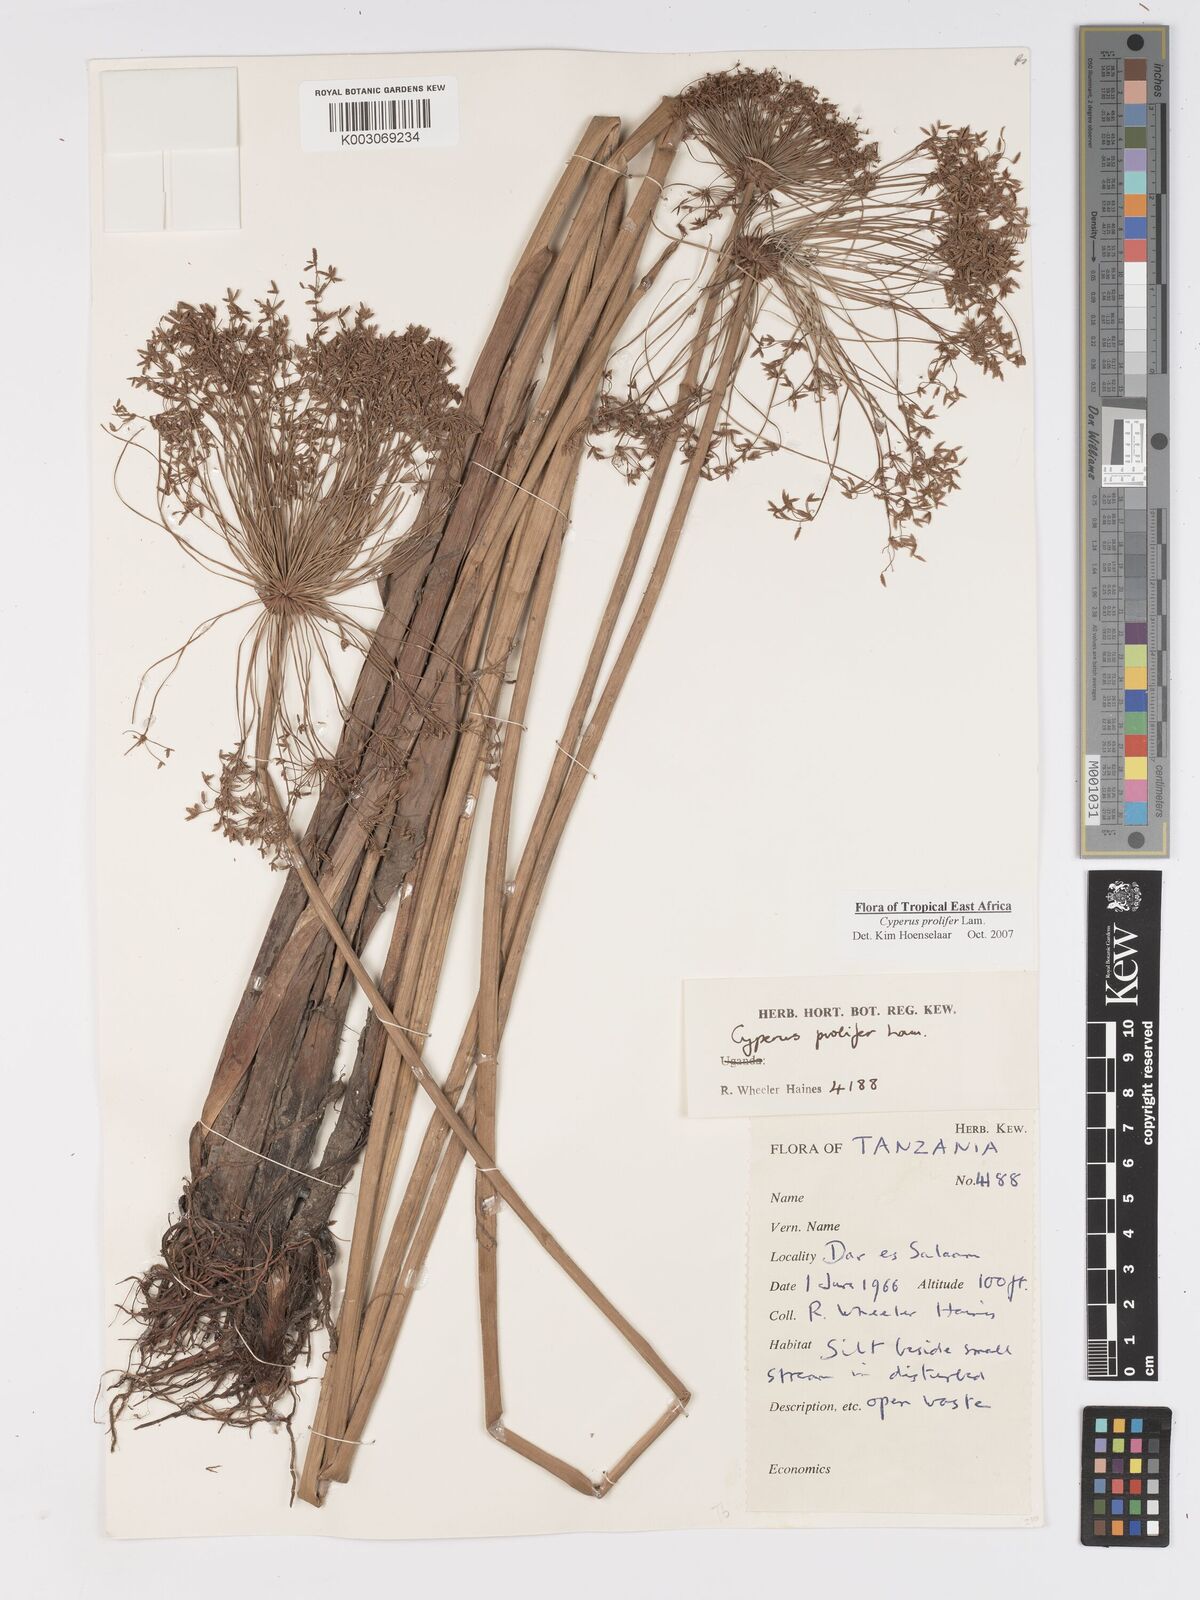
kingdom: Plantae
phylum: Tracheophyta
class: Liliopsida
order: Poales
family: Cyperaceae
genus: Cyperus
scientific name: Cyperus prolifer
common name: Miniature flatsedge
